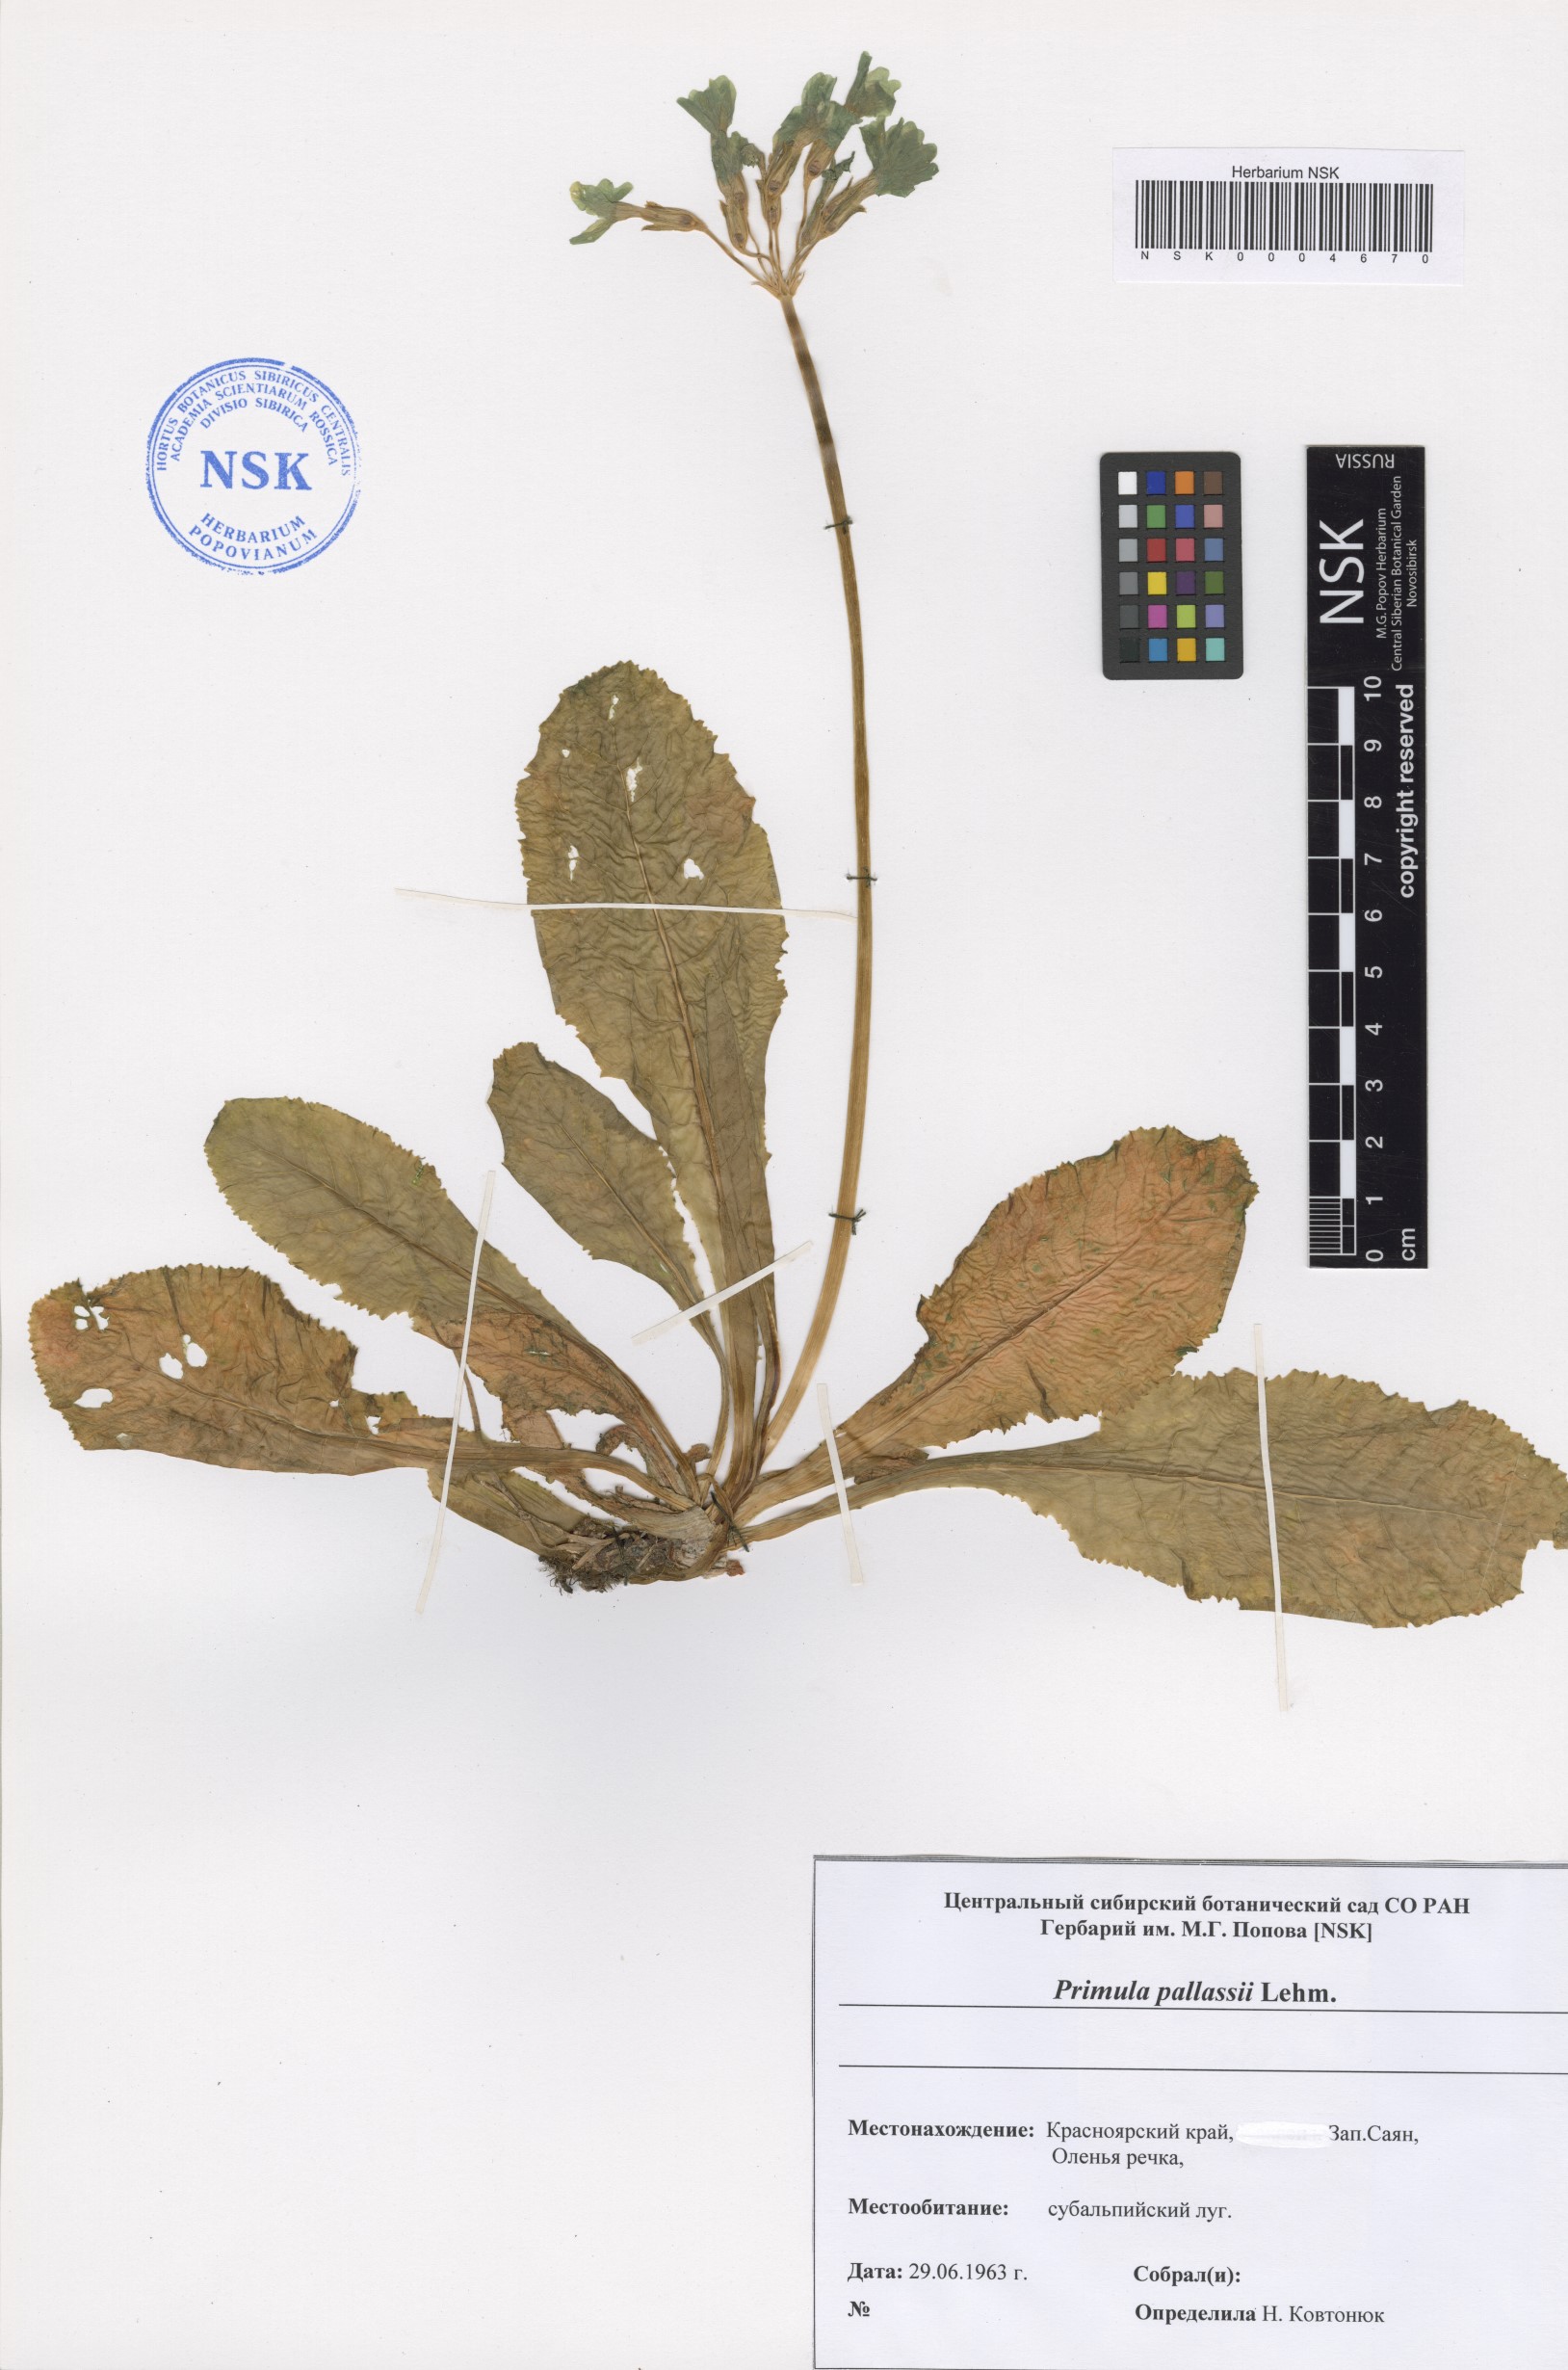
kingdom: Plantae
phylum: Tracheophyta
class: Magnoliopsida
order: Ericales
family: Primulaceae
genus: Primula
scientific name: Primula elatior
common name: Oxlip
